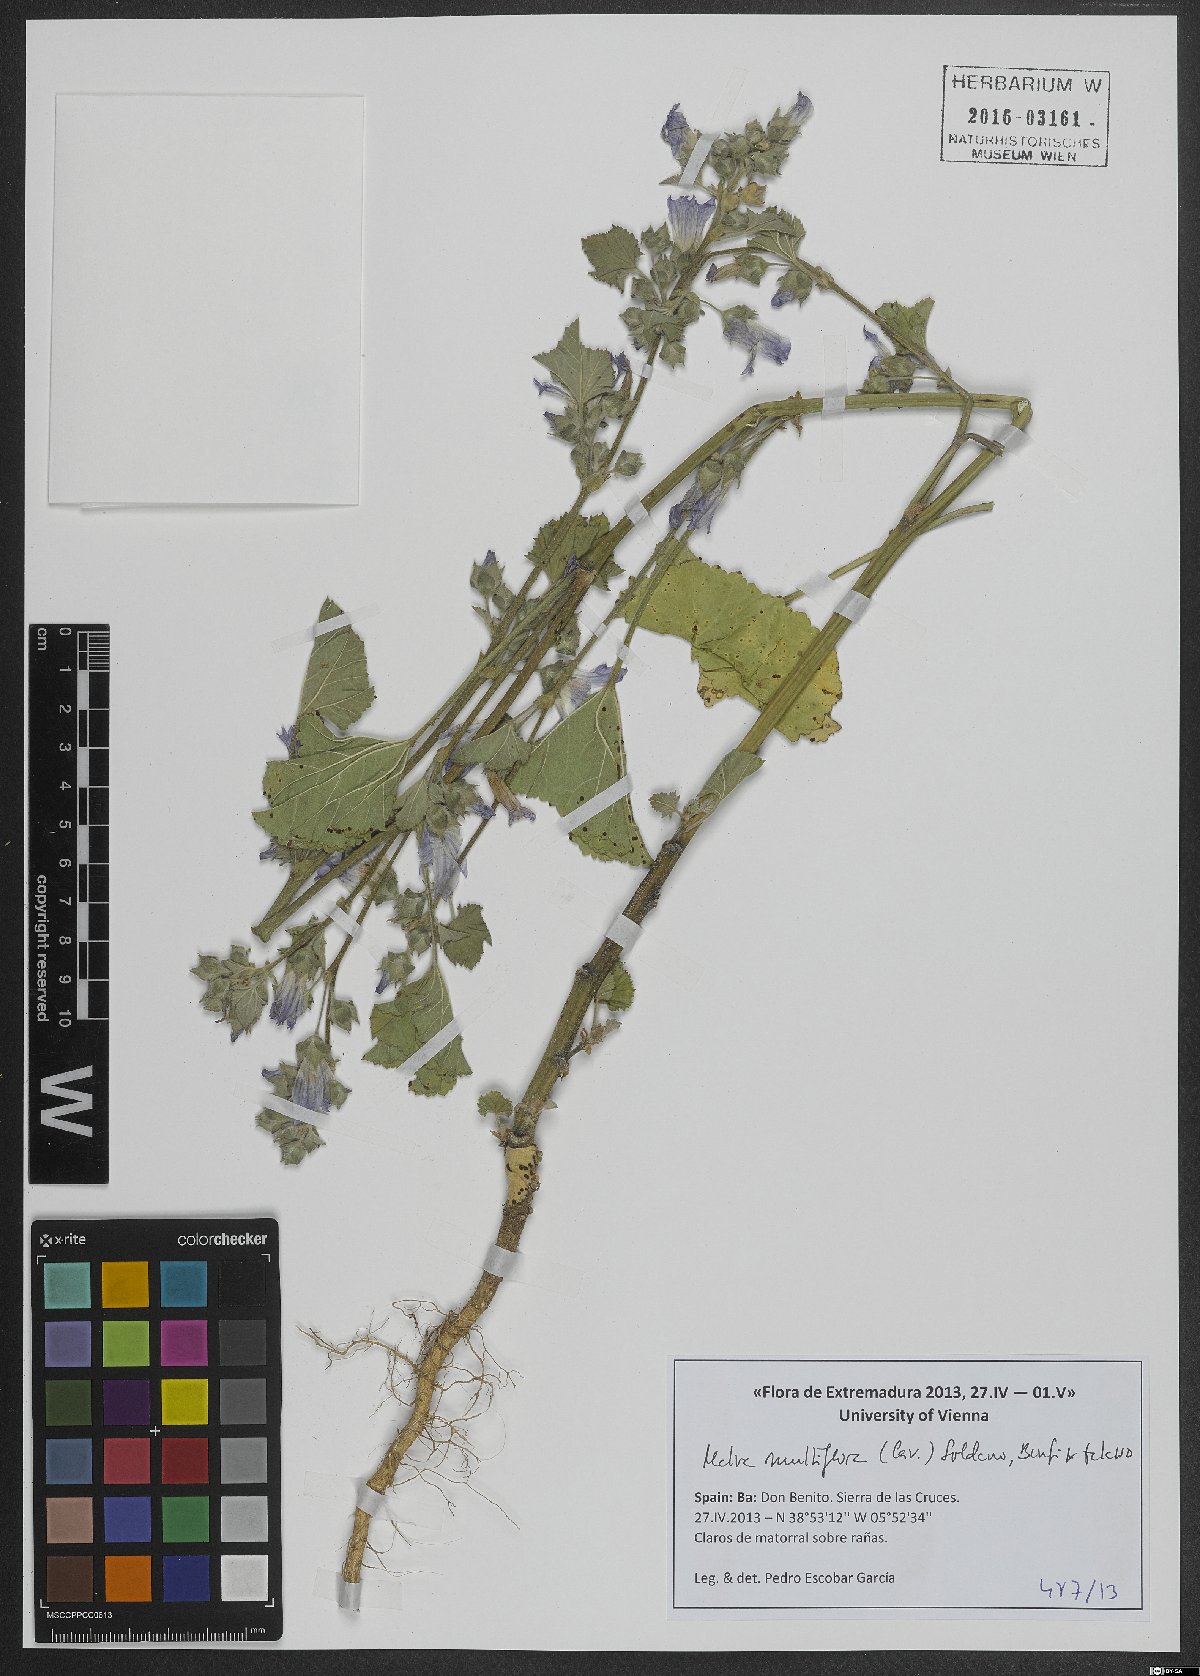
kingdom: Plantae
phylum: Tracheophyta
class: Magnoliopsida
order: Malvales
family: Malvaceae
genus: Malva
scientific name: Malva multiflora
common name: Cheeseweed
